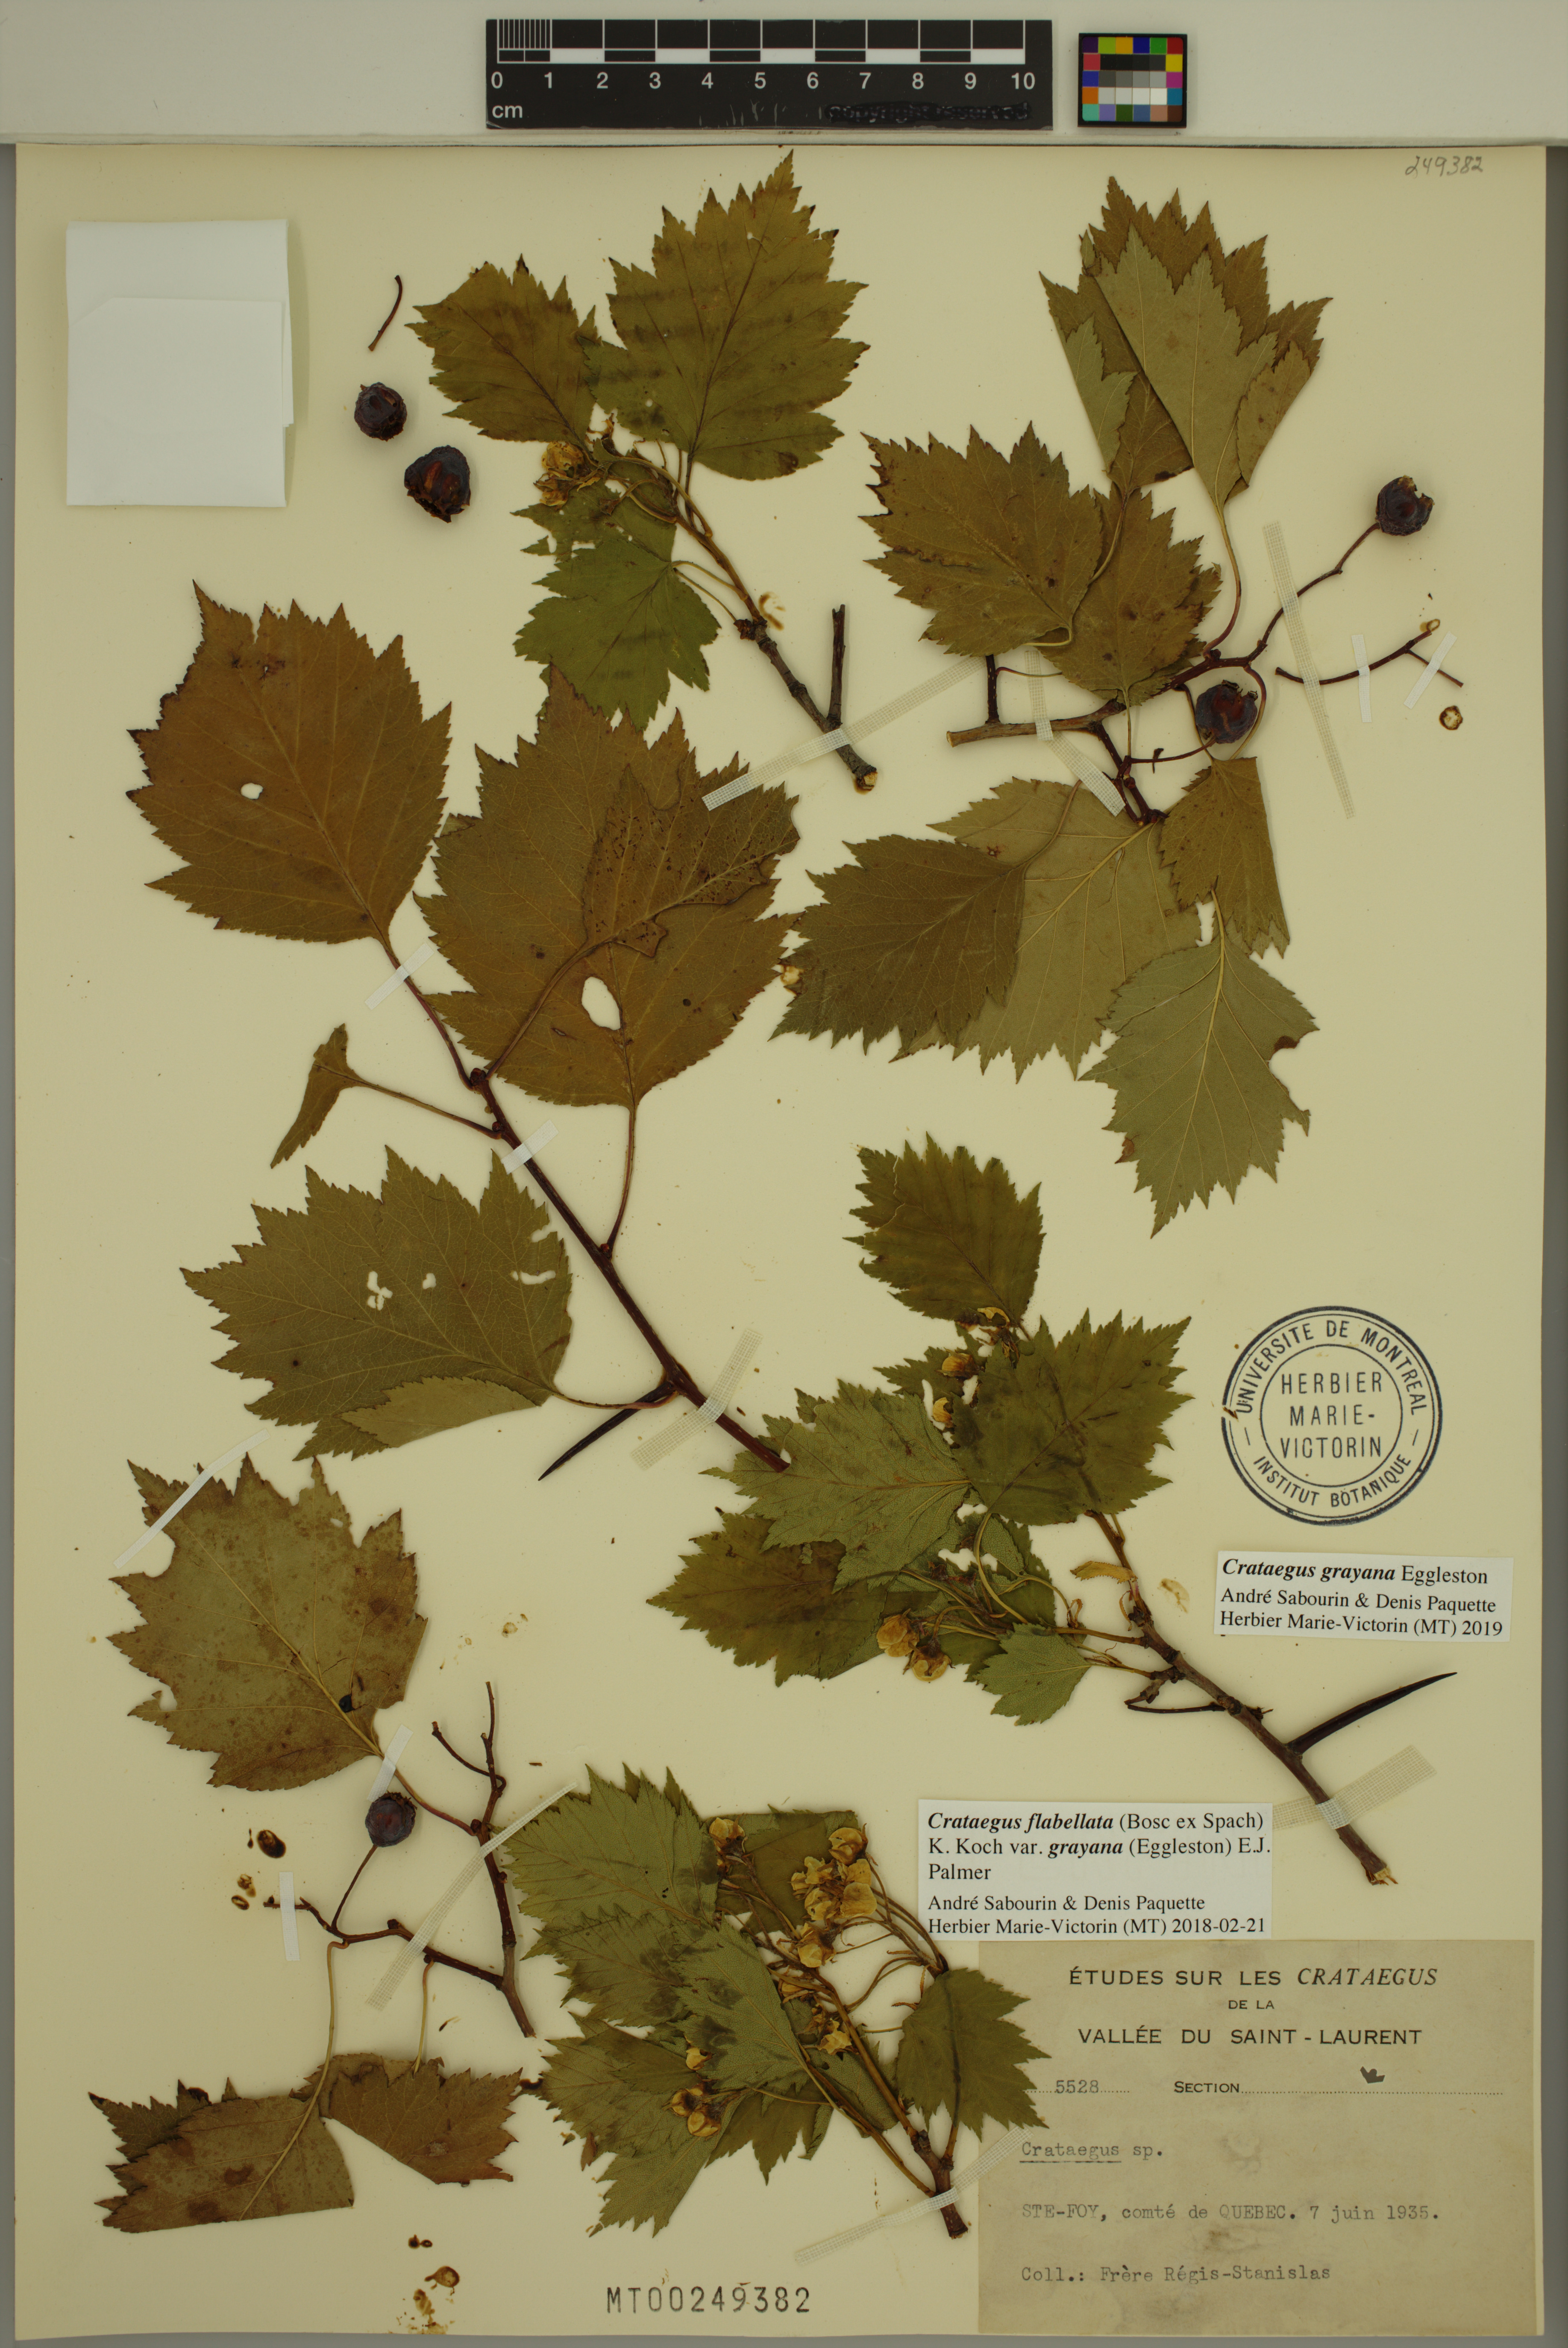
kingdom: Plantae
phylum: Tracheophyta
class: Magnoliopsida
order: Rosales
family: Rosaceae
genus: Crataegus
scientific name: Crataegus schuettei
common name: Schuette's hawthorn
